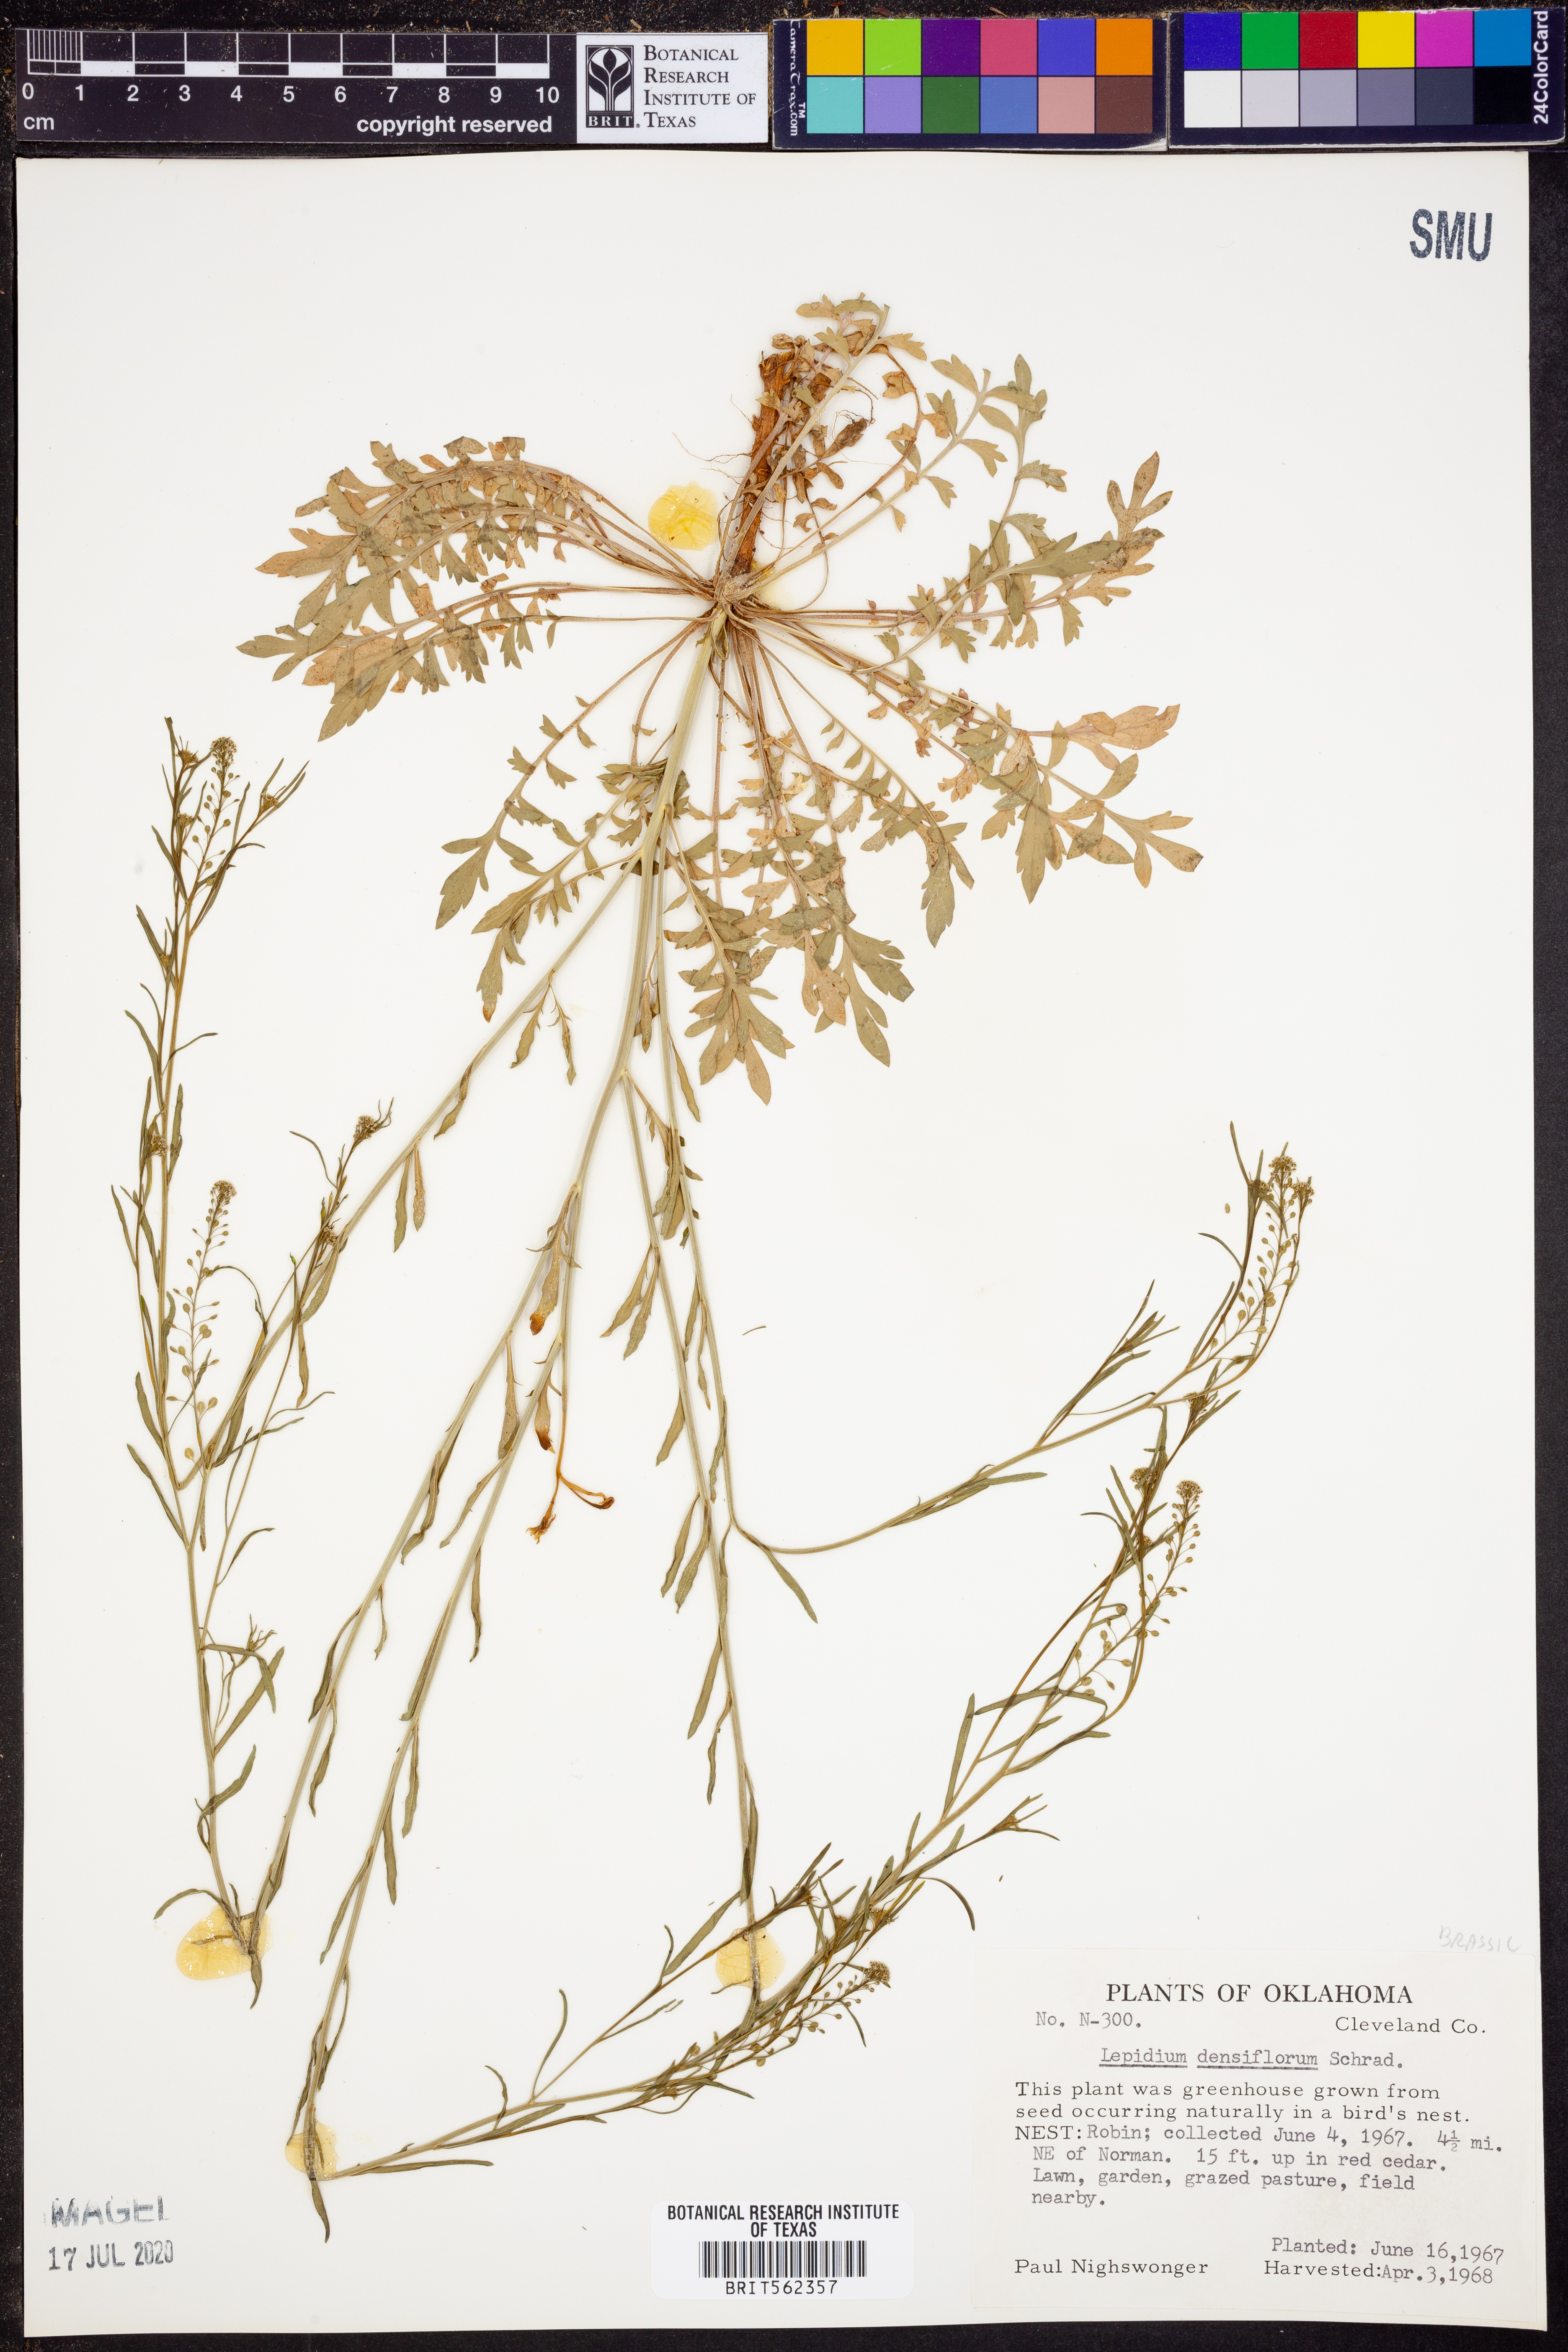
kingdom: Plantae
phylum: Tracheophyta
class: Magnoliopsida
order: Brassicales
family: Brassicaceae
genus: Lepidium
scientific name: Lepidium densiflorum
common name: Miner's pepperwort
